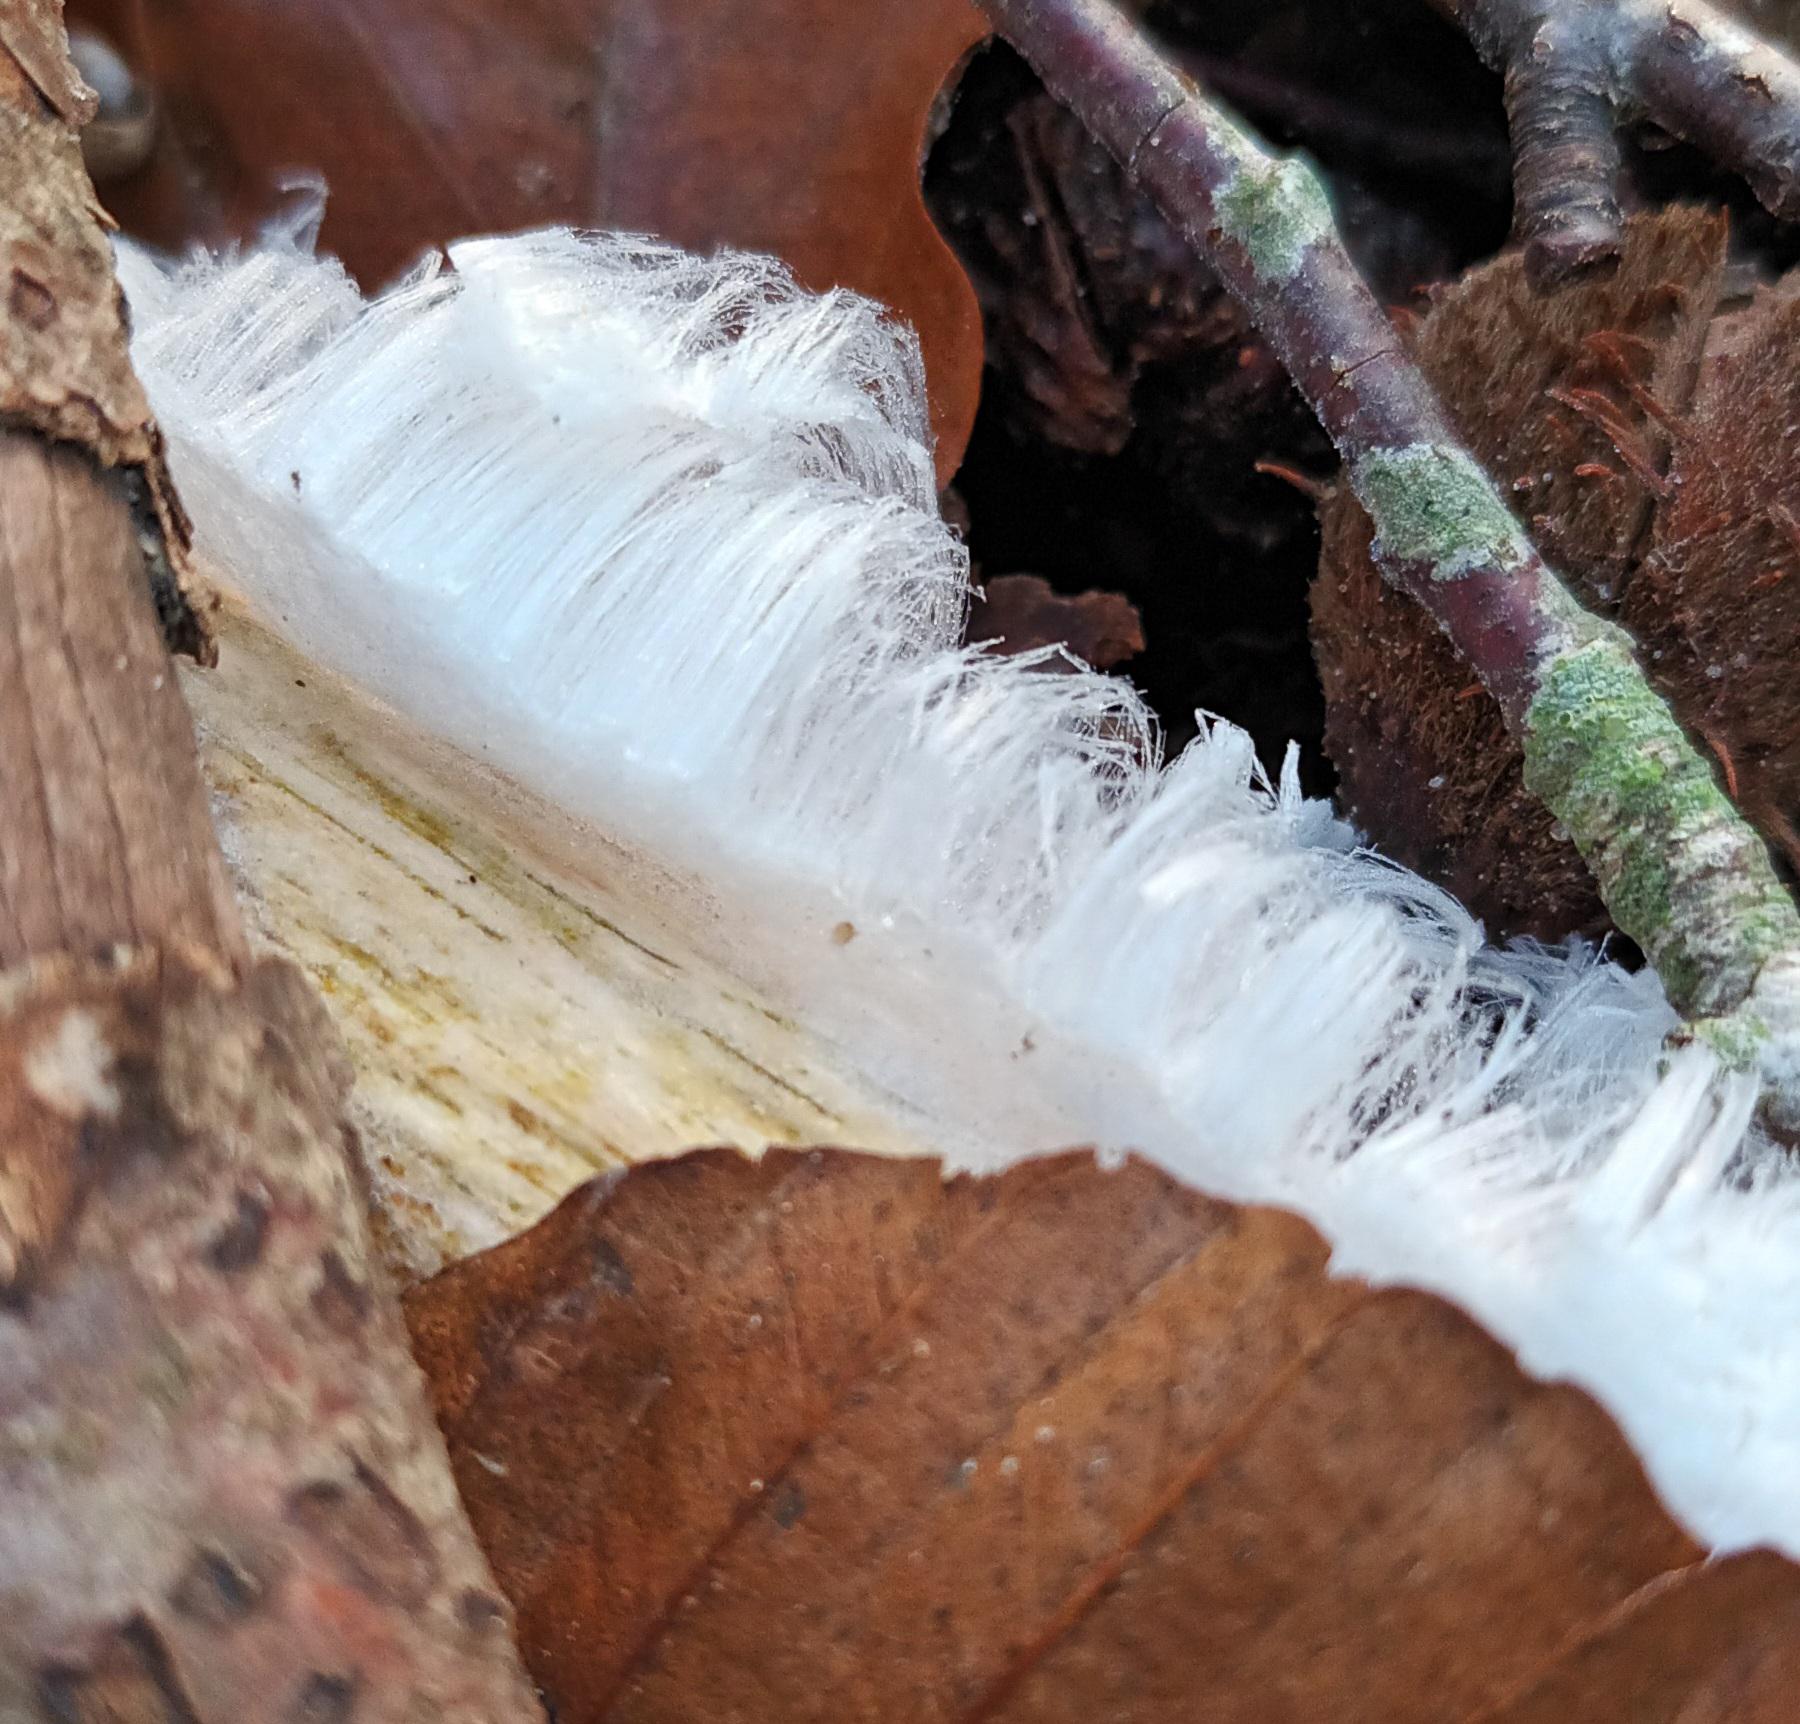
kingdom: Fungi
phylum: Basidiomycota
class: Tremellomycetes
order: Tremellales
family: Exidiaceae
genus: Exidiopsis
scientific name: Exidiopsis effusa
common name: Smuk bævrehinde
